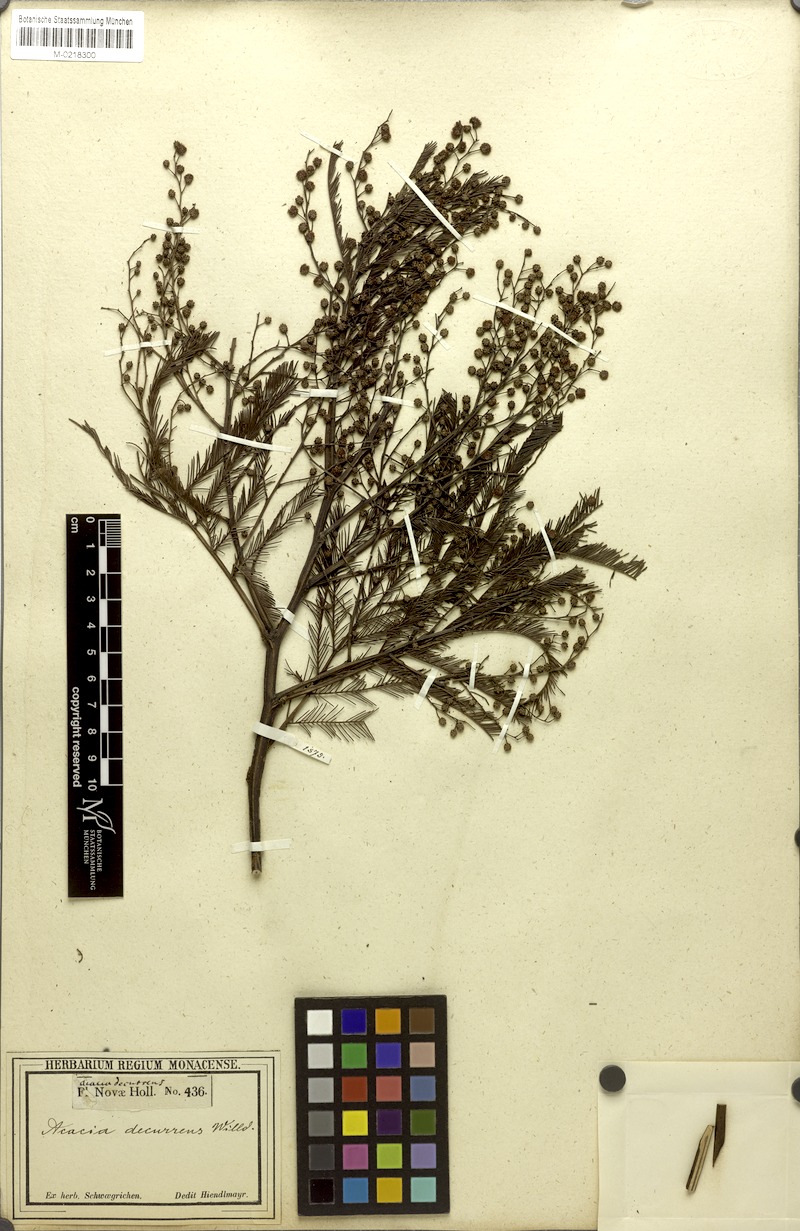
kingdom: Plantae
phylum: Tracheophyta
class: Magnoliopsida
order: Fabales
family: Fabaceae
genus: Acacia
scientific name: Acacia decurrens
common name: Green wattle
